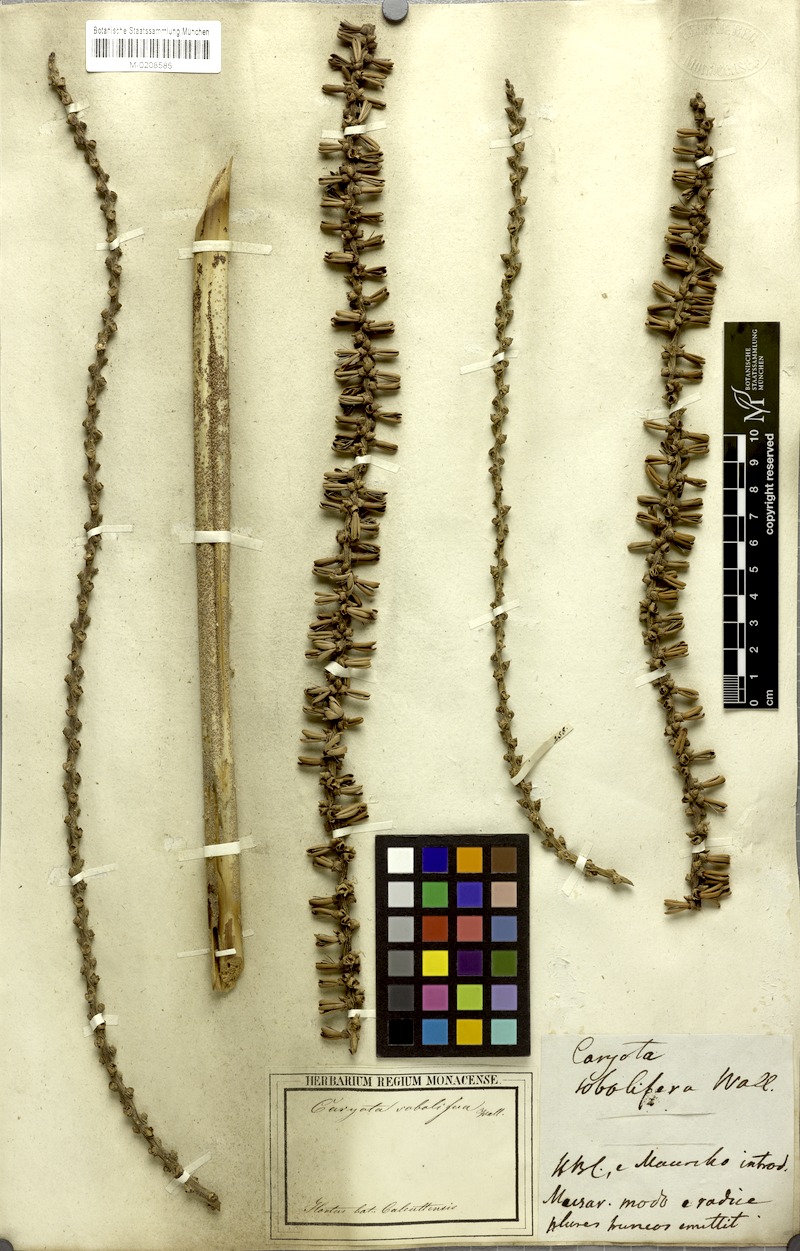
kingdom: Plantae
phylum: Tracheophyta
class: Liliopsida
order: Arecales
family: Arecaceae
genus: Caryota
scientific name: Caryota mitis
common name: Burmese fishtail palm
